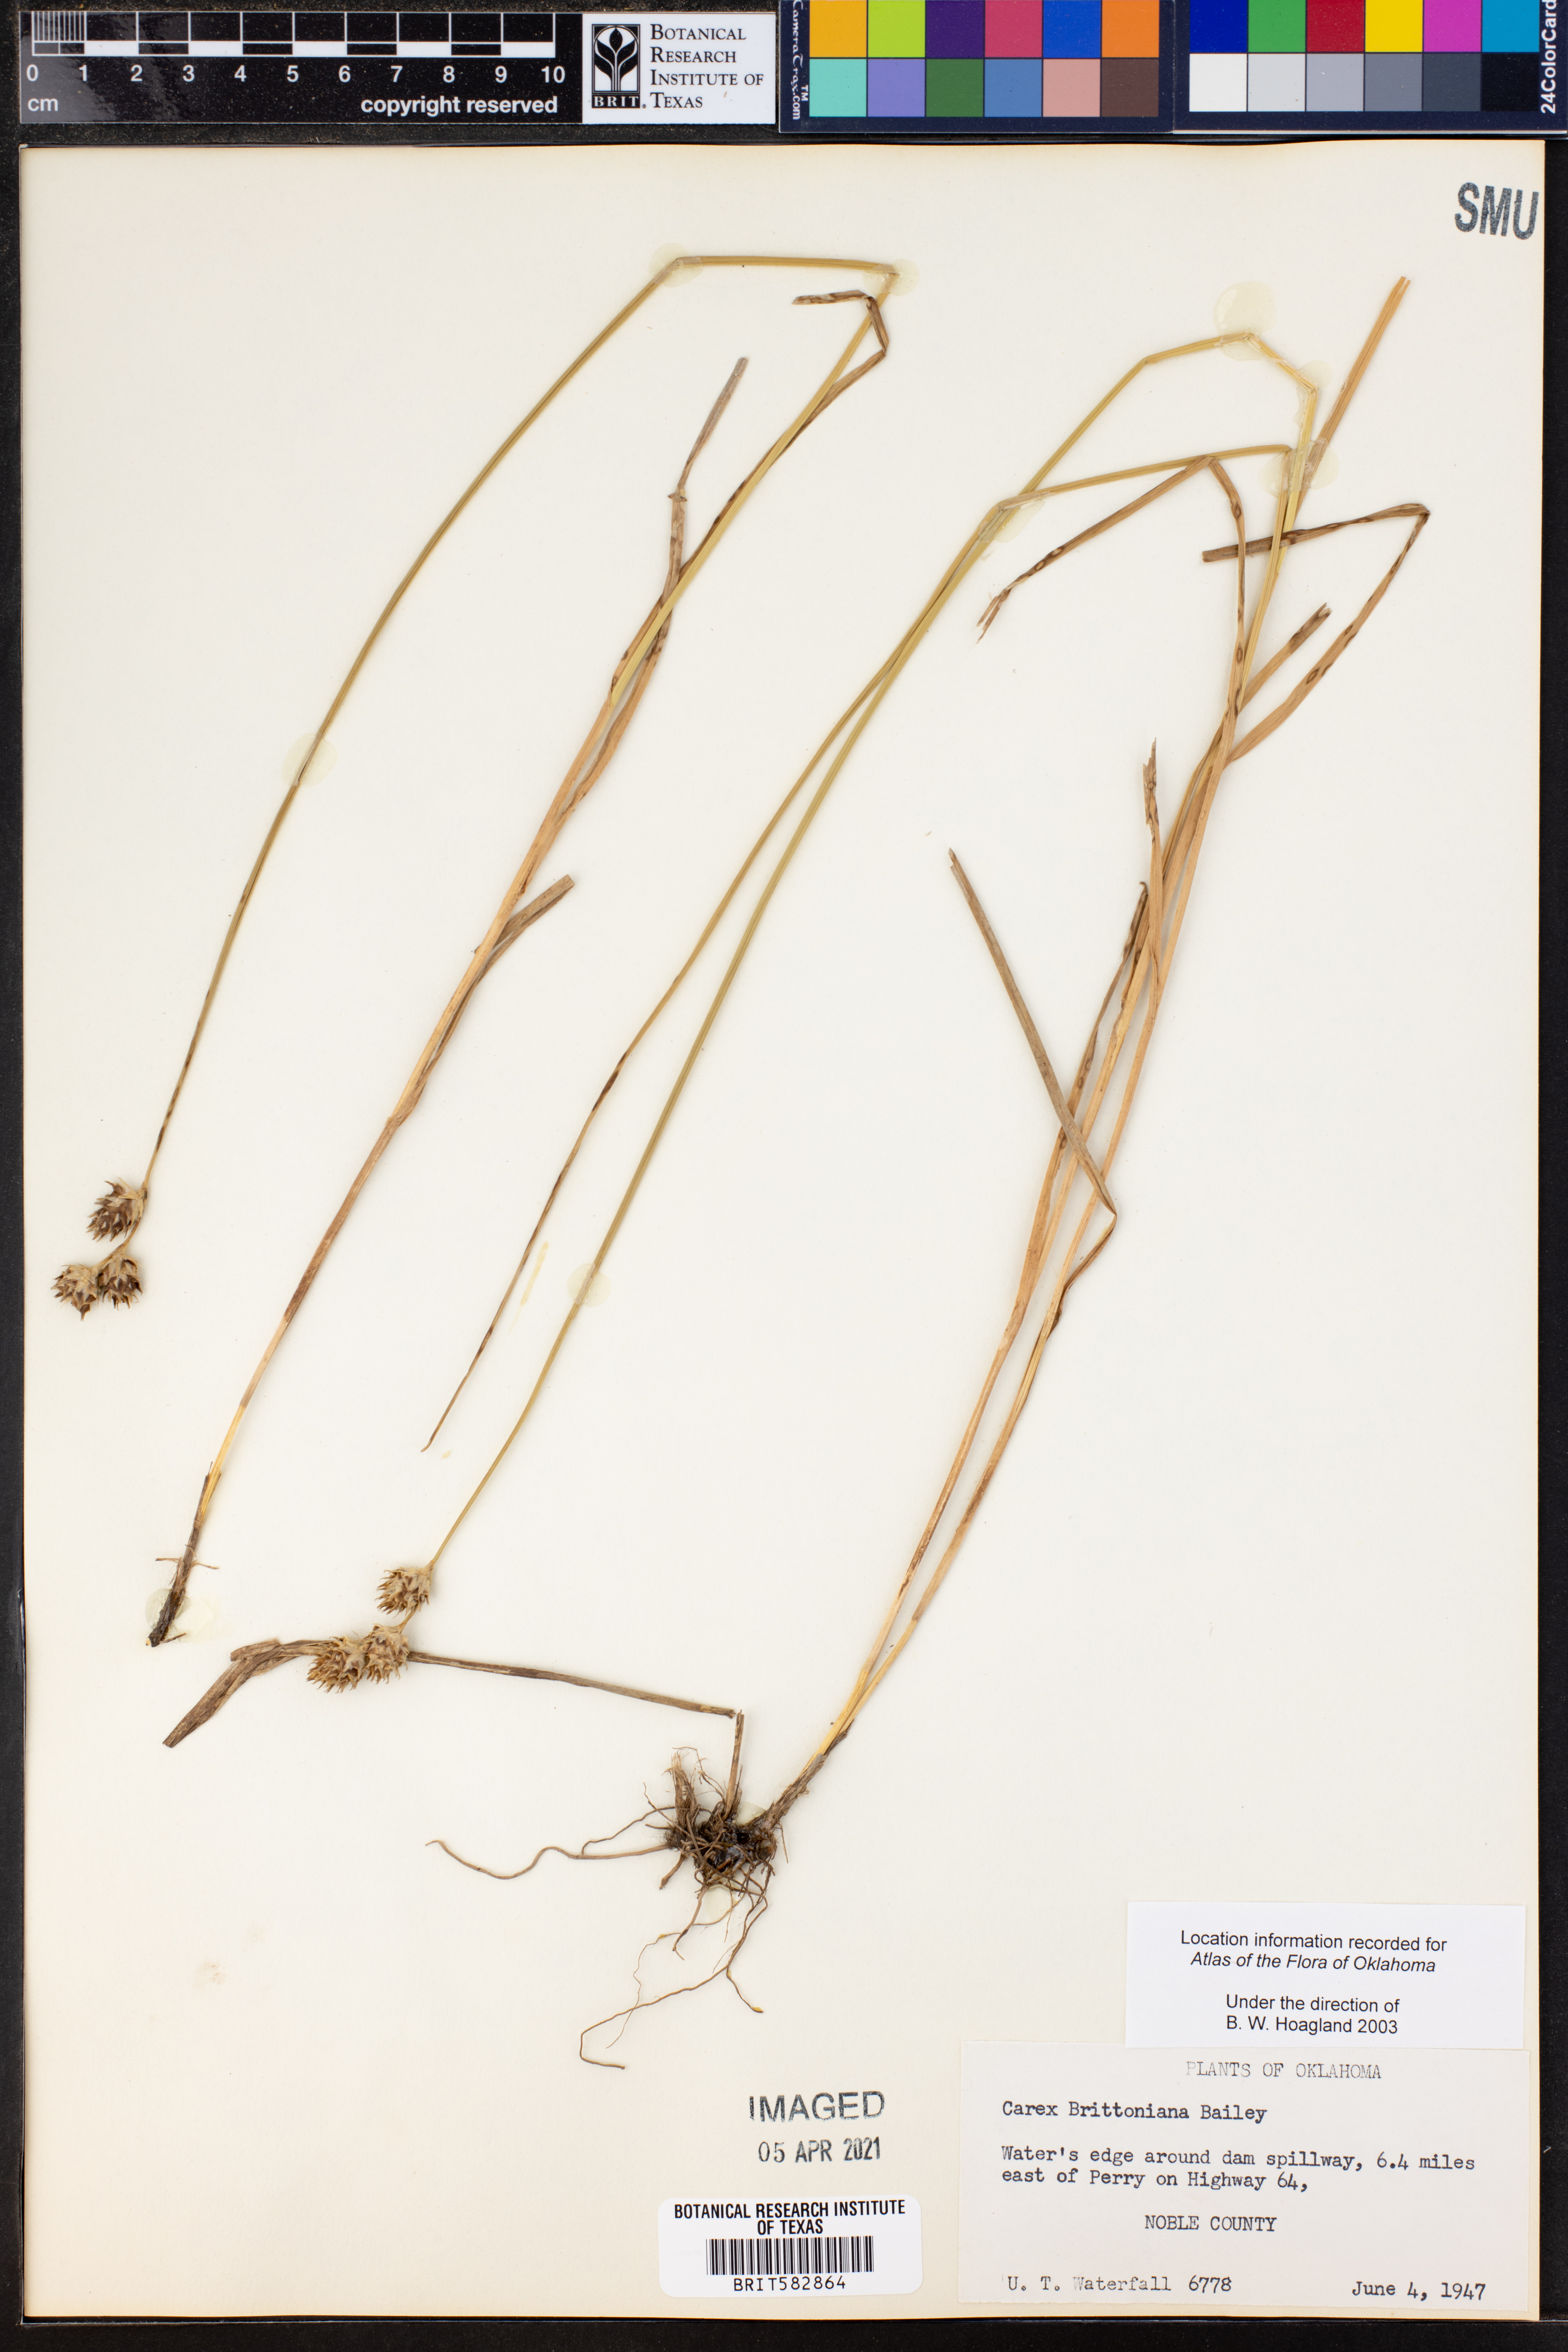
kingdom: Plantae
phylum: Tracheophyta
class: Liliopsida
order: Poales
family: Cyperaceae
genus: Carex
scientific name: Carex tetrastachya
